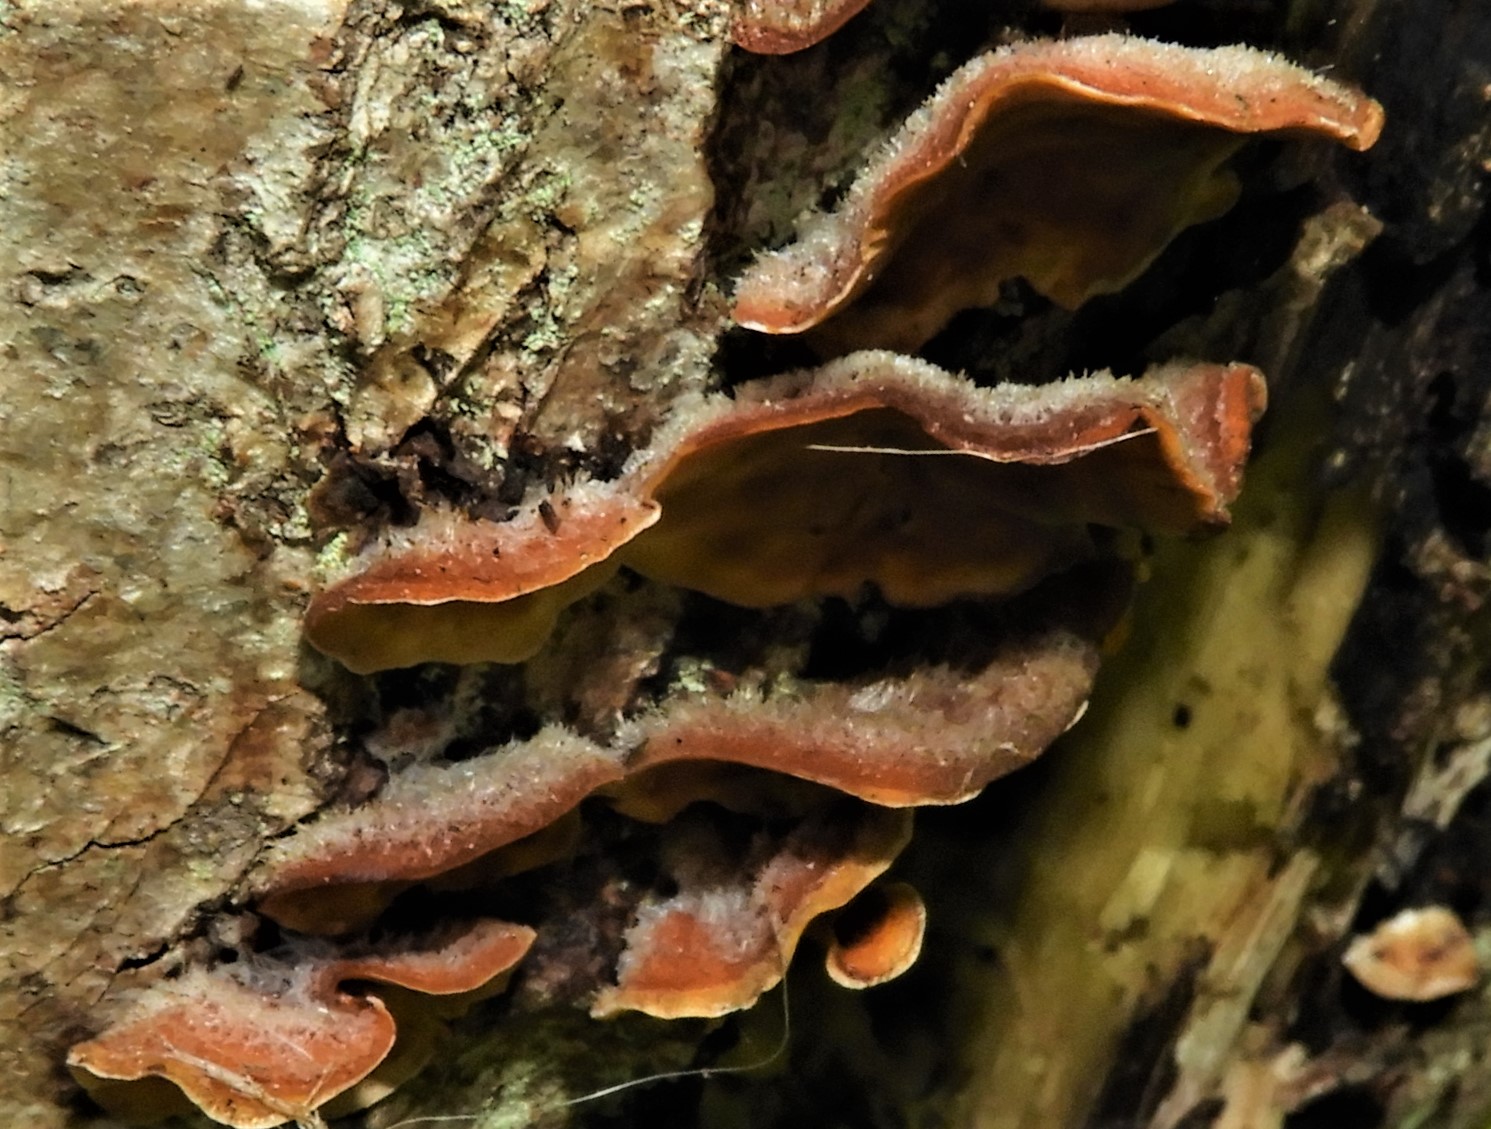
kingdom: Fungi
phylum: Basidiomycota
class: Agaricomycetes
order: Russulales
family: Stereaceae
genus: Stereum
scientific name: Stereum hirsutum
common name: håret lædersvamp
